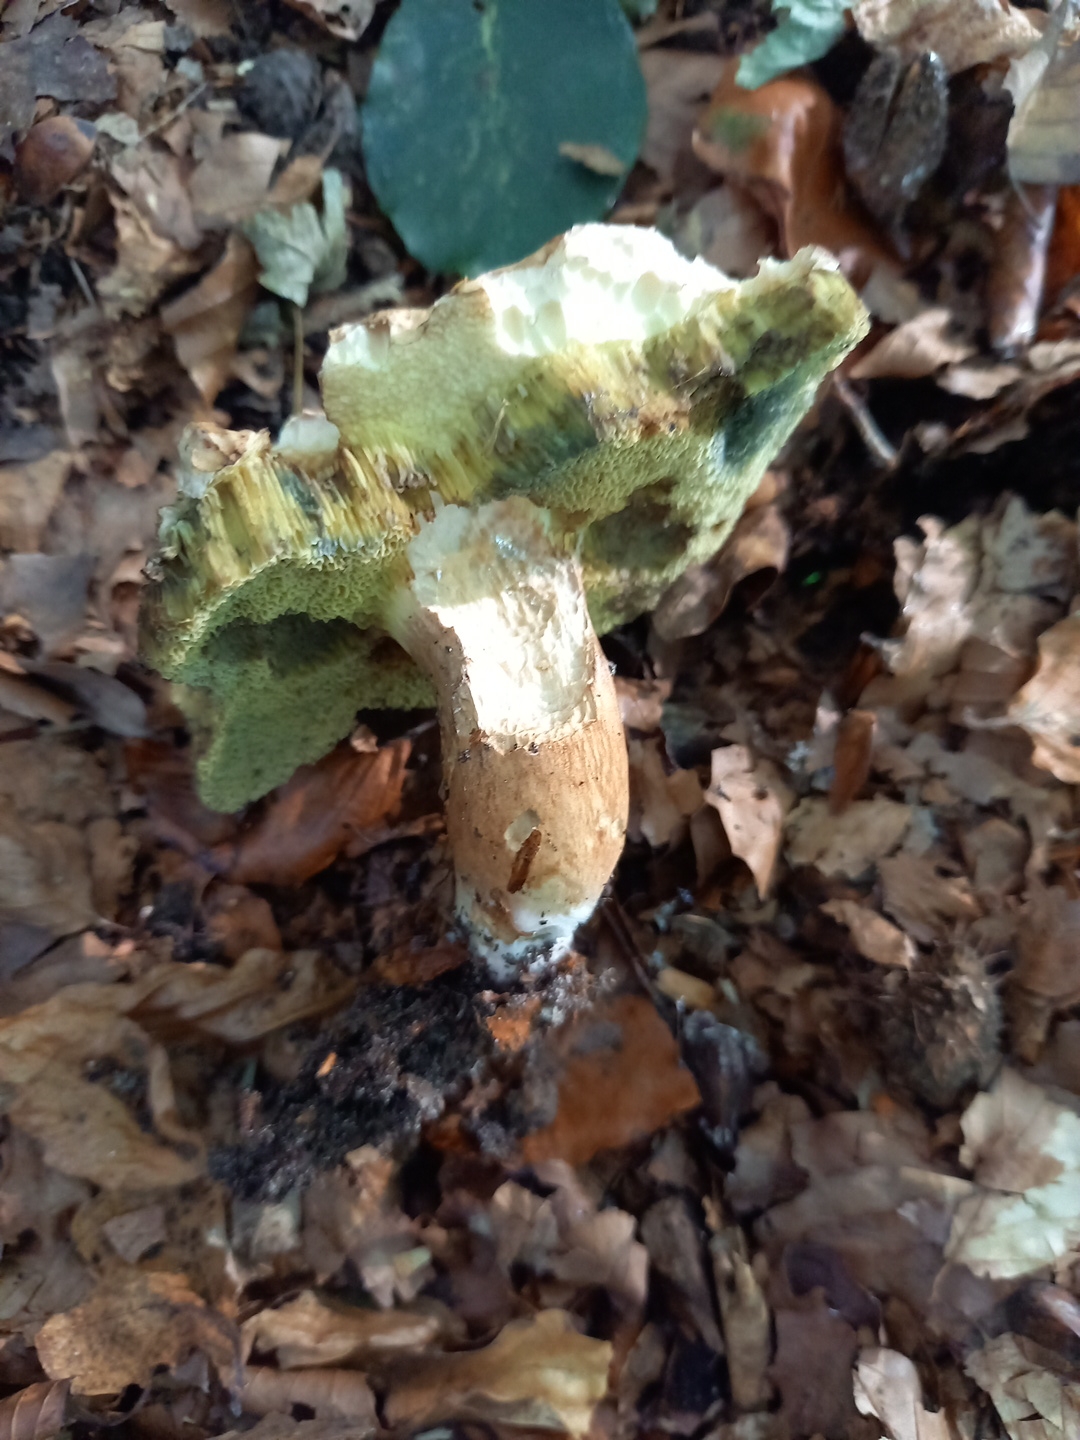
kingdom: Fungi
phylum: Basidiomycota
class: Agaricomycetes
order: Boletales
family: Boletaceae
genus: Imleria
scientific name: Imleria badia
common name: brunstokket rørhat
